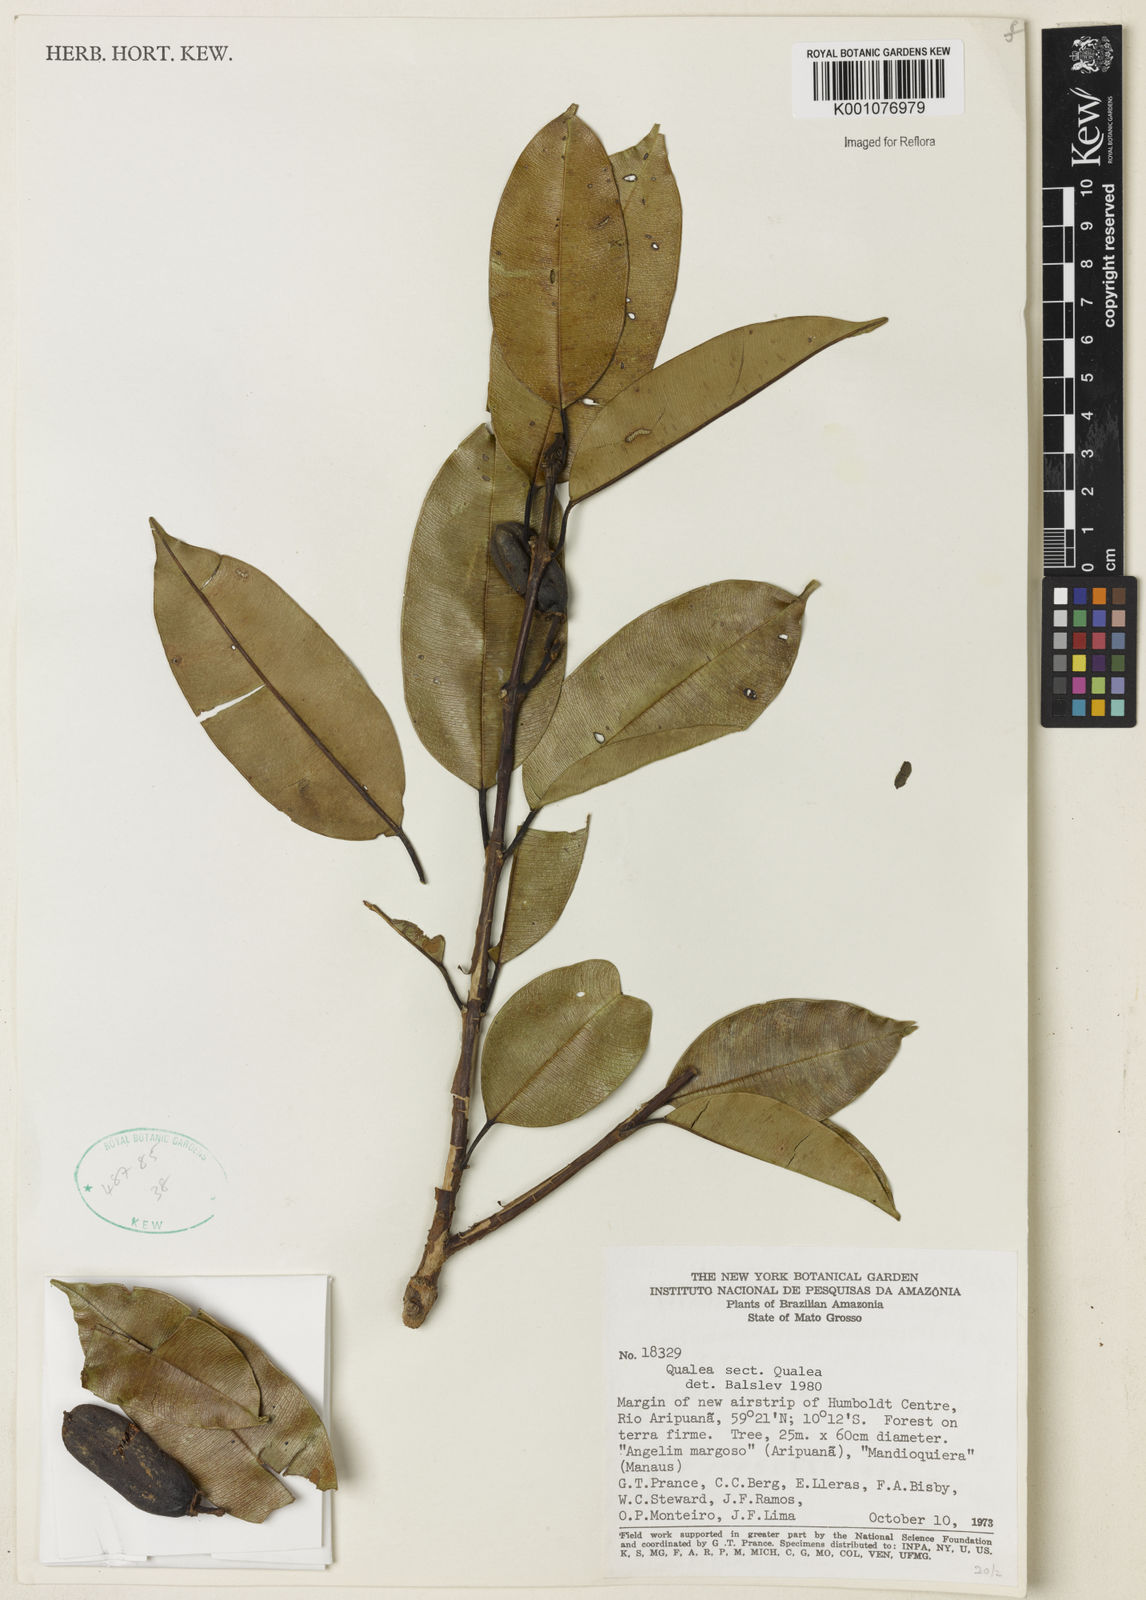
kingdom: Plantae
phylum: Tracheophyta
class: Magnoliopsida
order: Myrtales
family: Vochysiaceae
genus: Qualea
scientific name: Qualea
